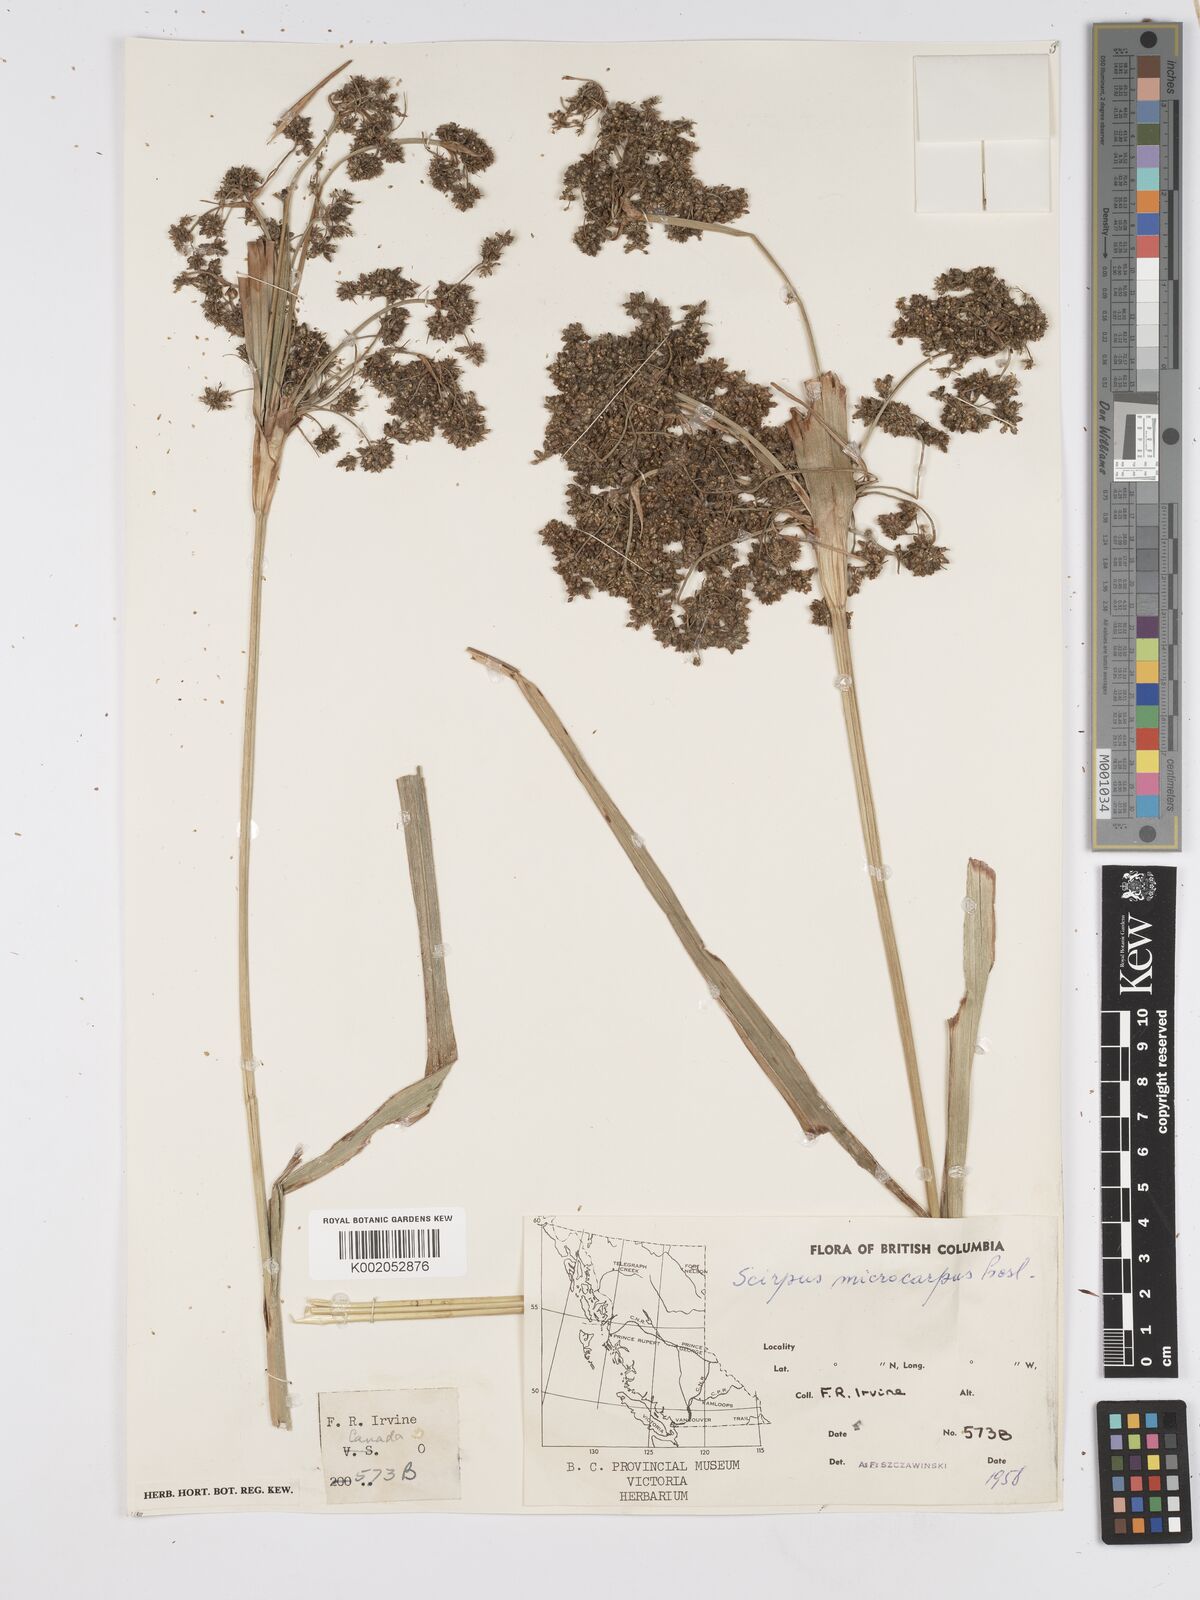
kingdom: Plantae
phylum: Tracheophyta
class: Liliopsida
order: Poales
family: Cyperaceae
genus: Scirpus
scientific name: Scirpus sylvaticus
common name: Wood club-rush
